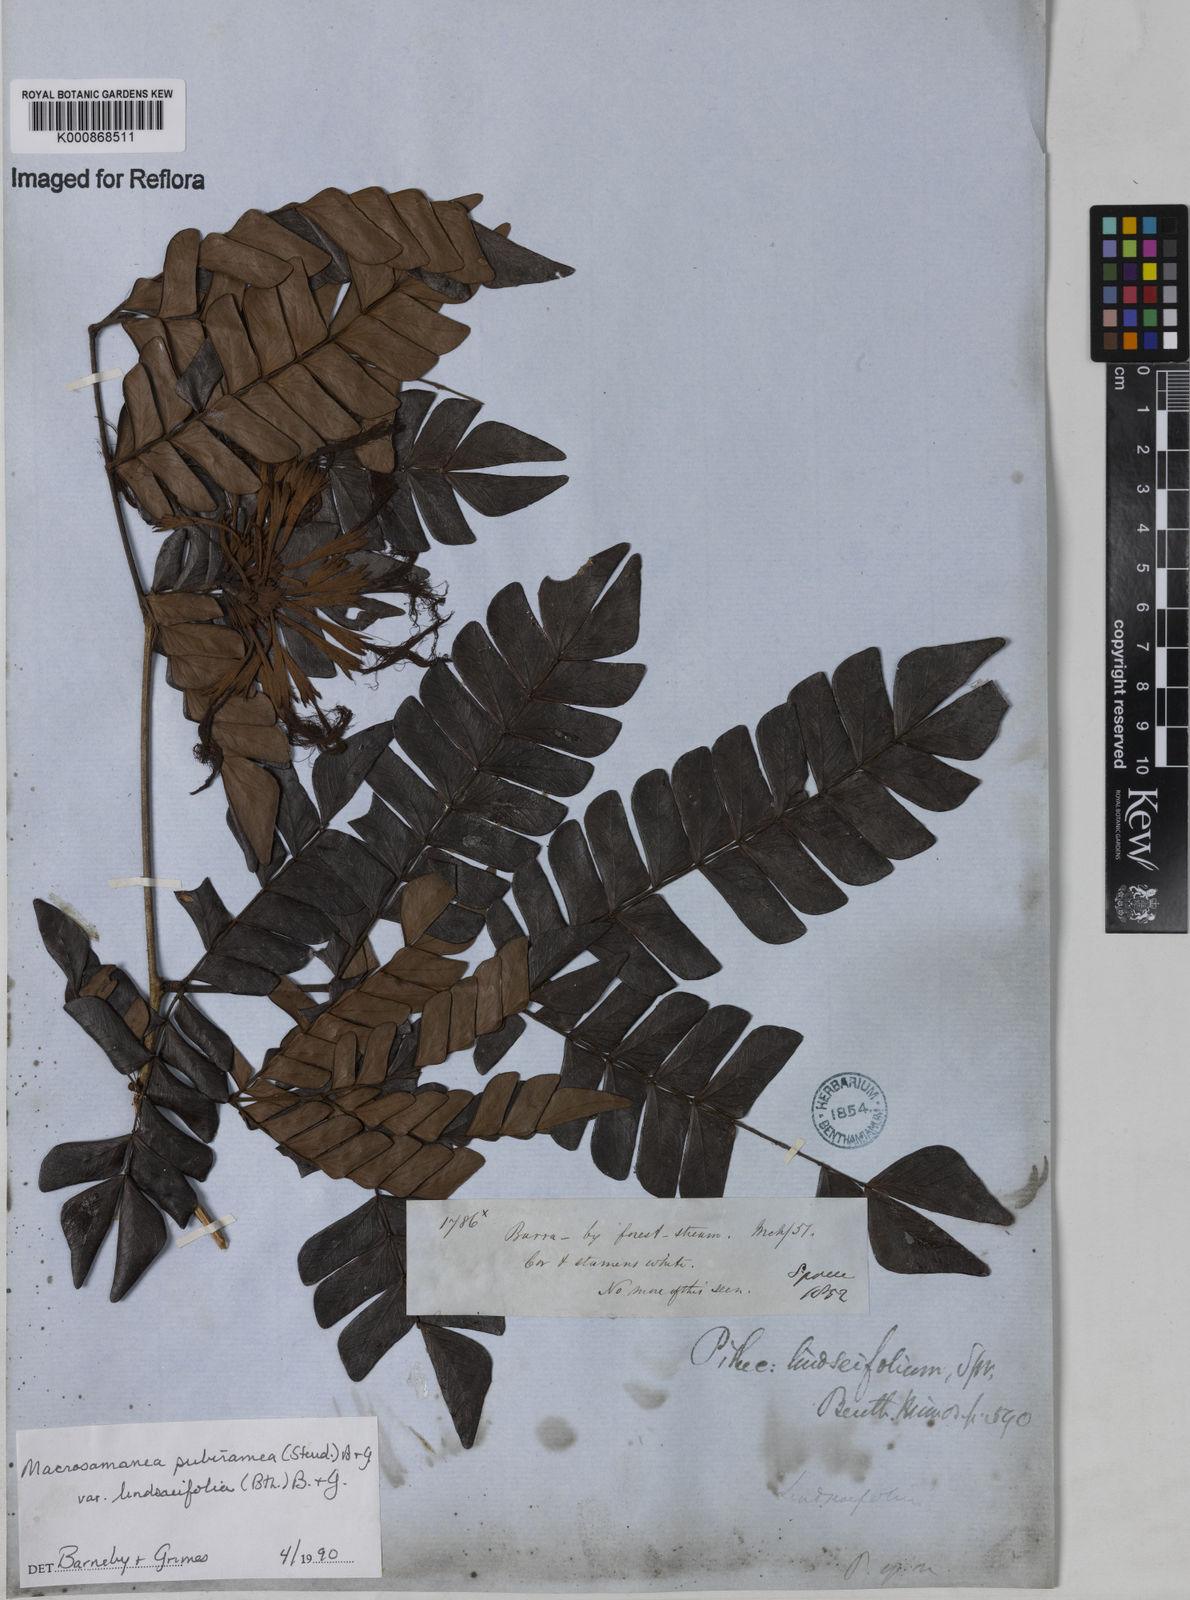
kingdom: Plantae
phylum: Tracheophyta
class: Magnoliopsida
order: Fabales
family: Fabaceae
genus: Macrosamanea
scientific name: Macrosamanea pubiramea
